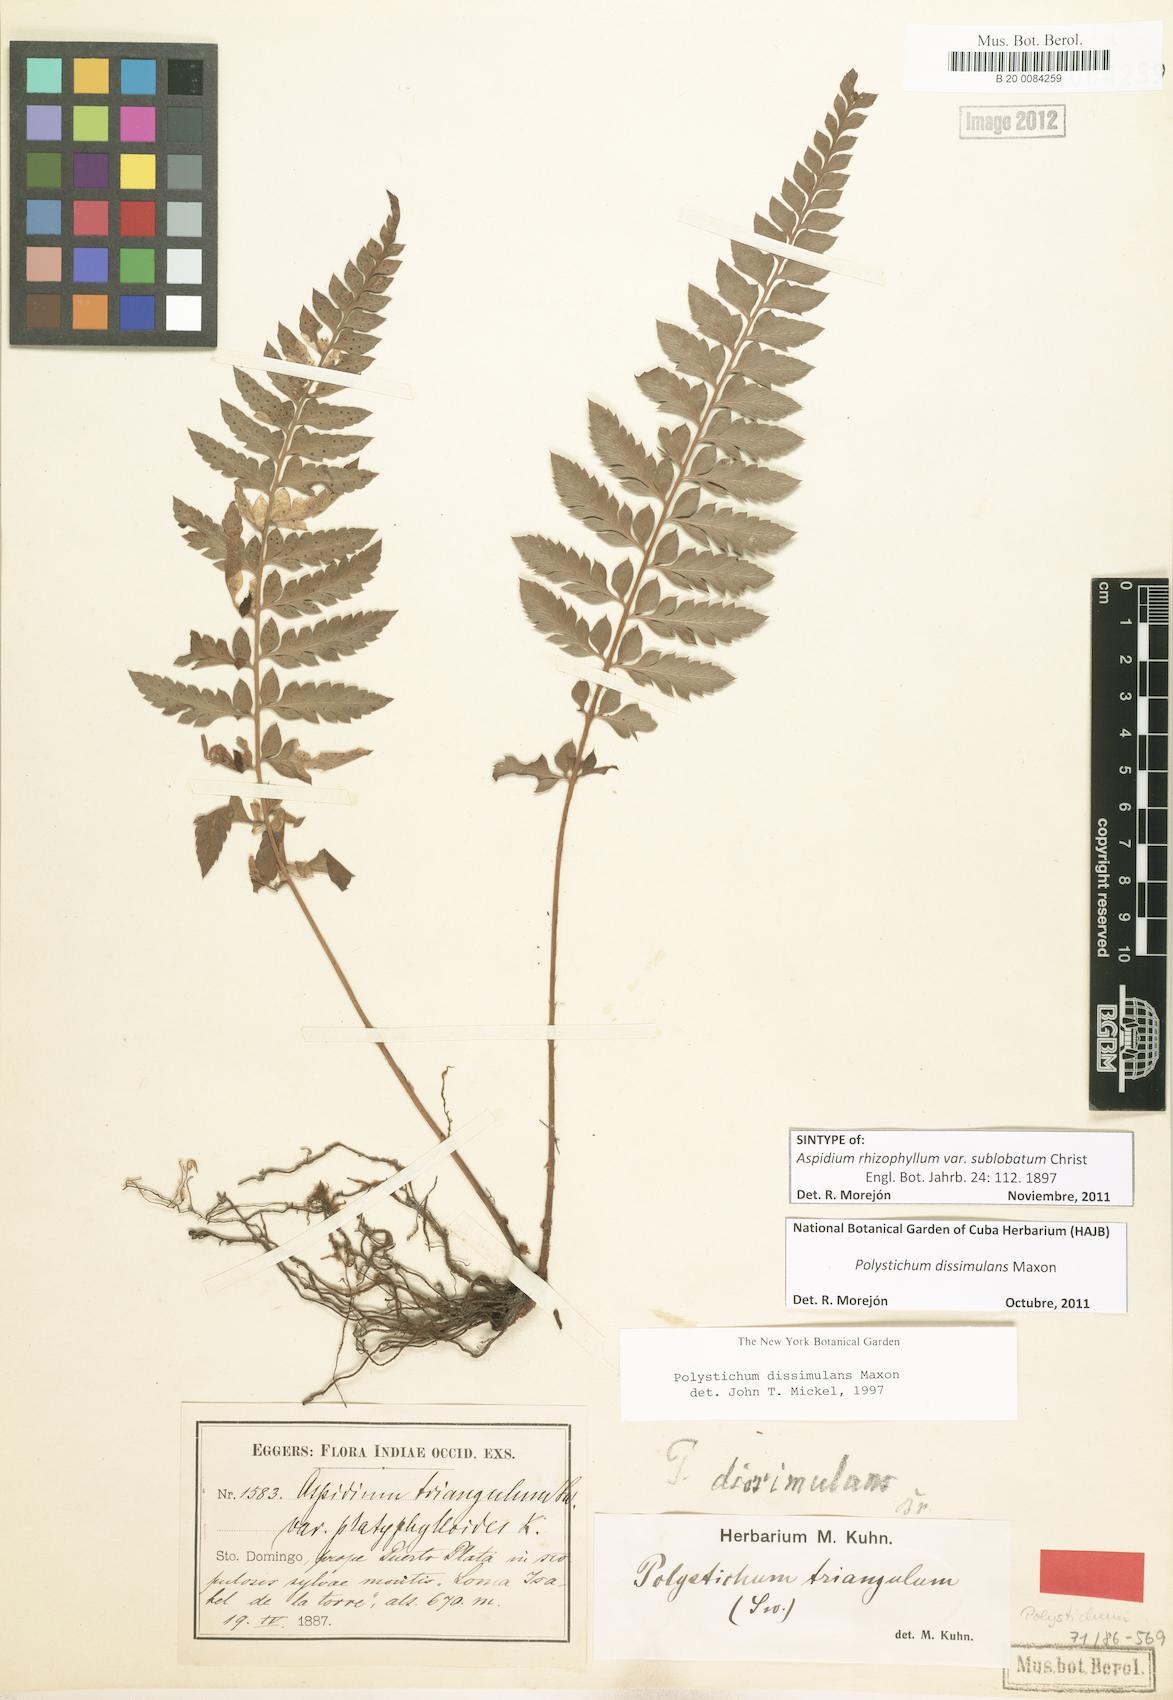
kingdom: Plantae
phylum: Tracheophyta
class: Polypodiopsida
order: Polypodiales
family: Dryopteridaceae
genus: Polystichum
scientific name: Polystichum dissimulans
